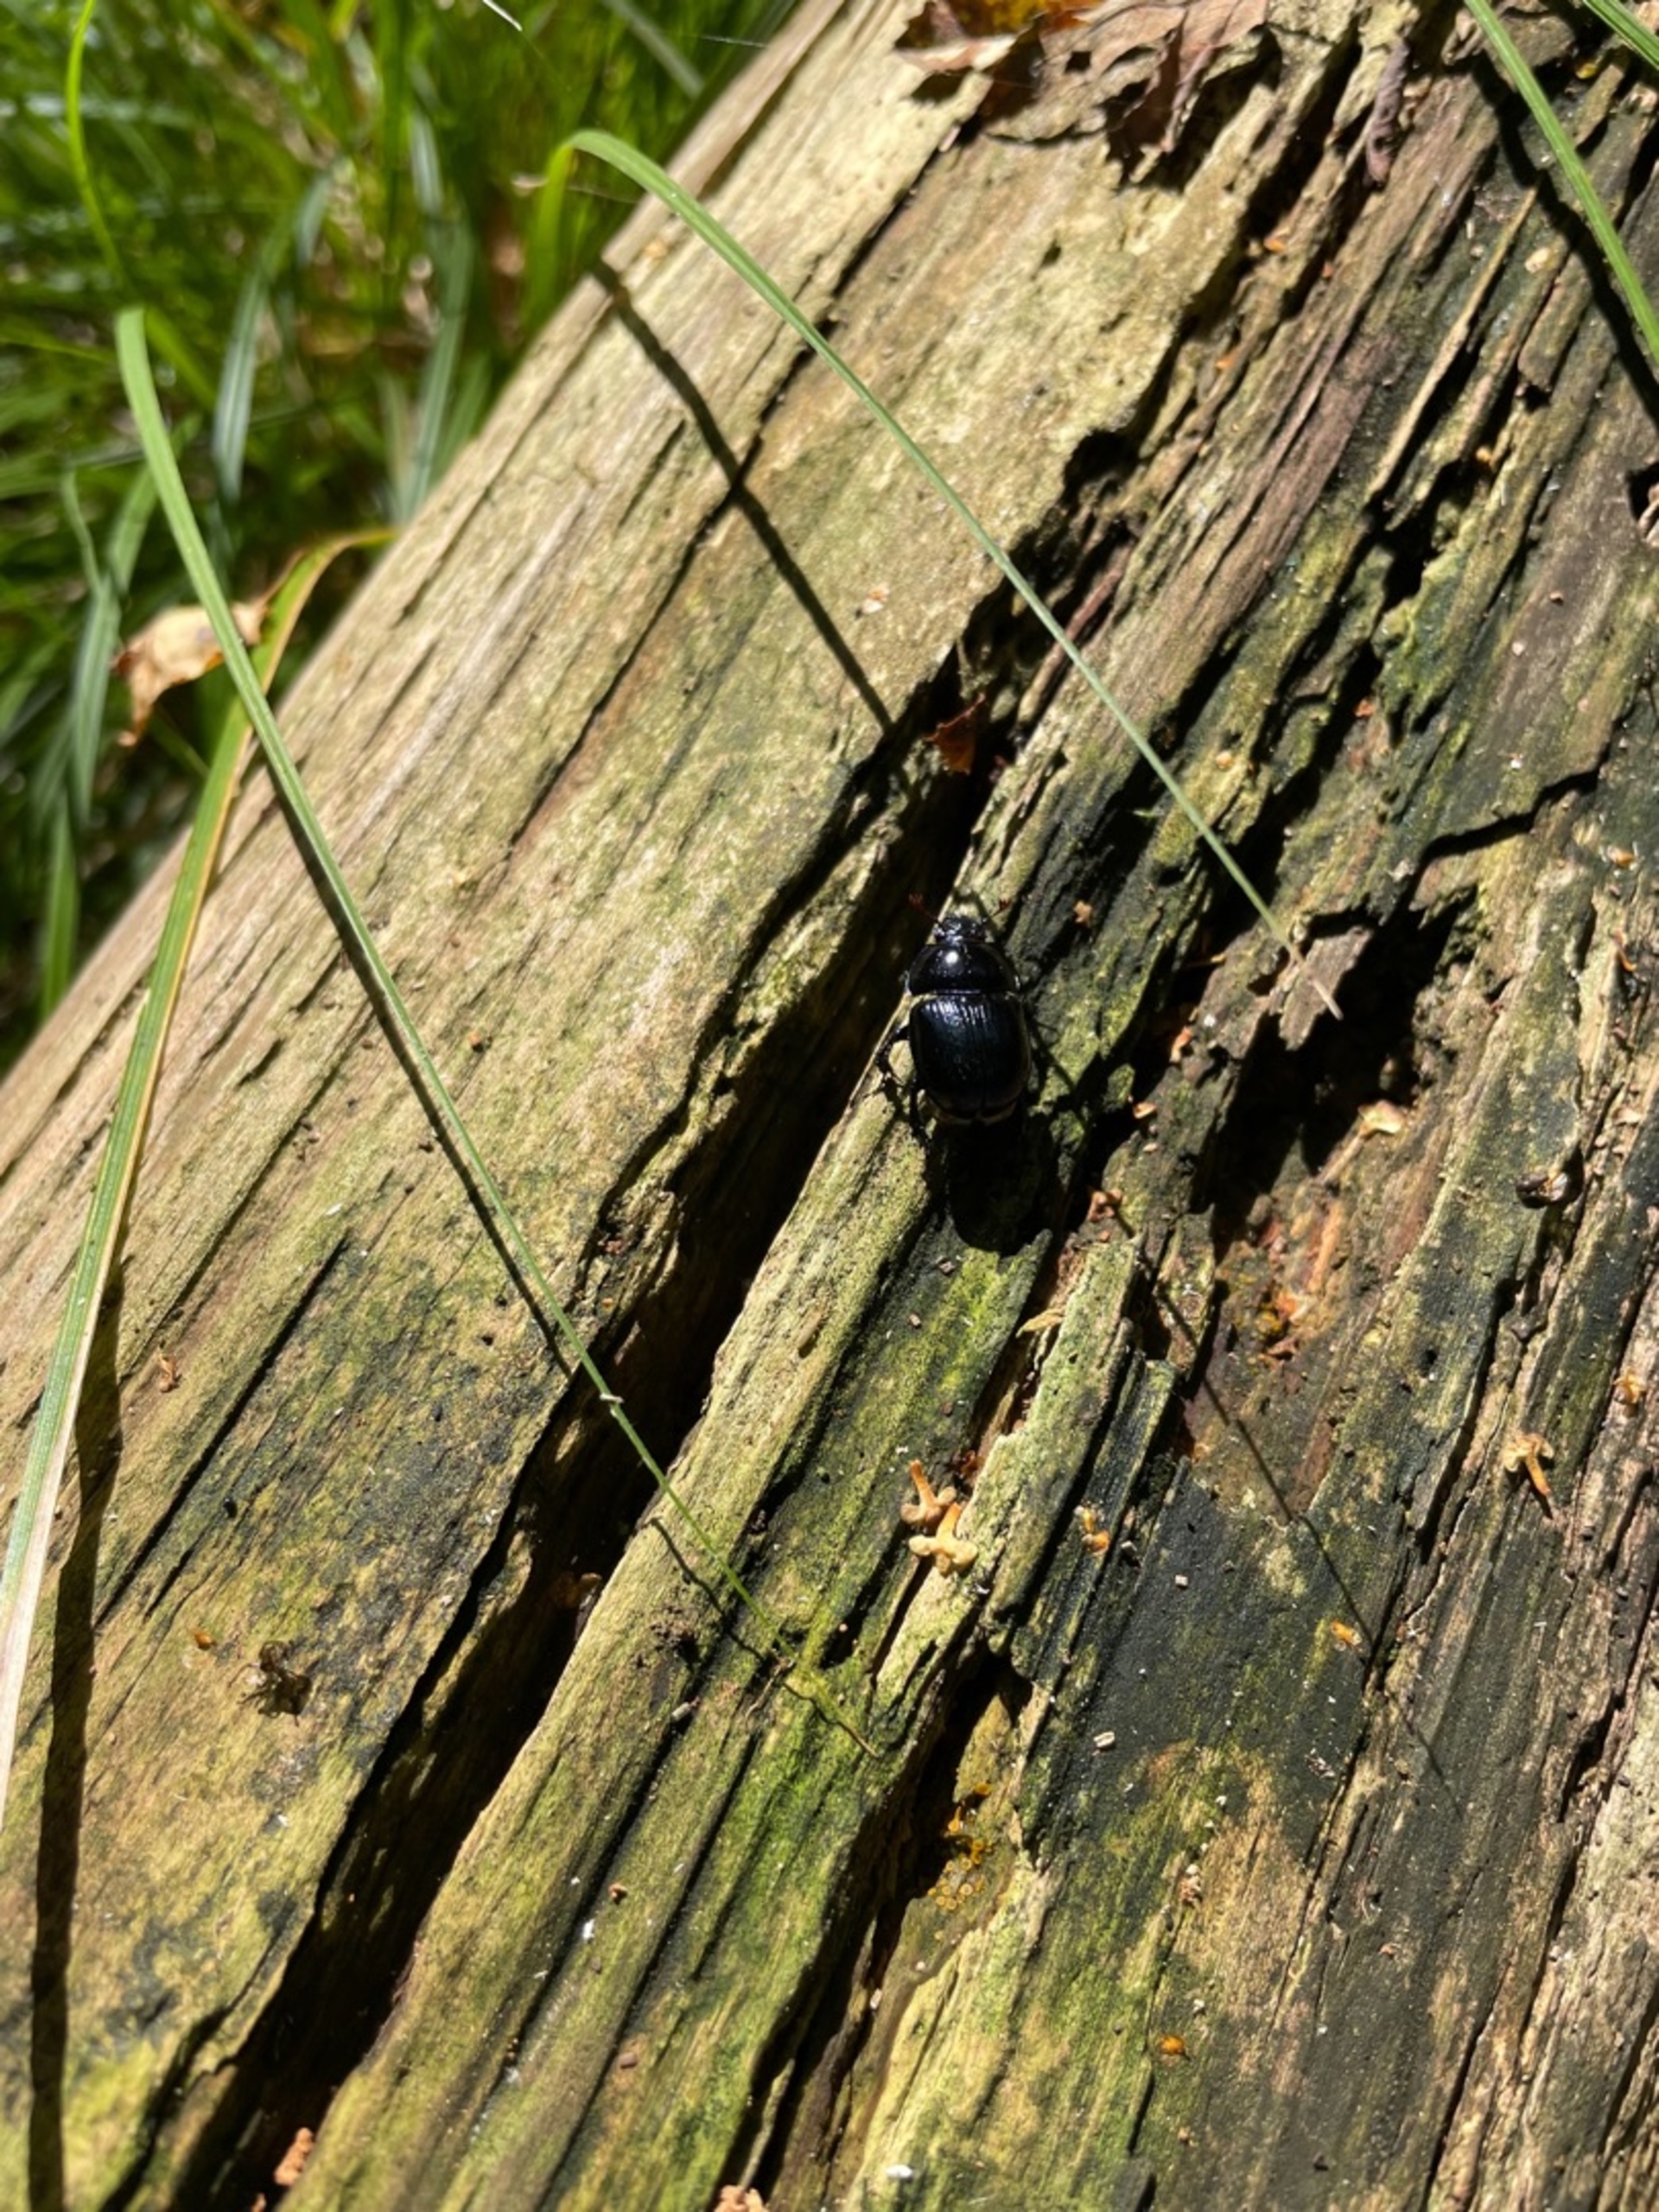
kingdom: Animalia
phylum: Arthropoda
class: Insecta
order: Coleoptera
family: Geotrupidae
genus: Anoplotrupes
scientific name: Anoplotrupes stercorosus
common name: Skovskarnbasse
